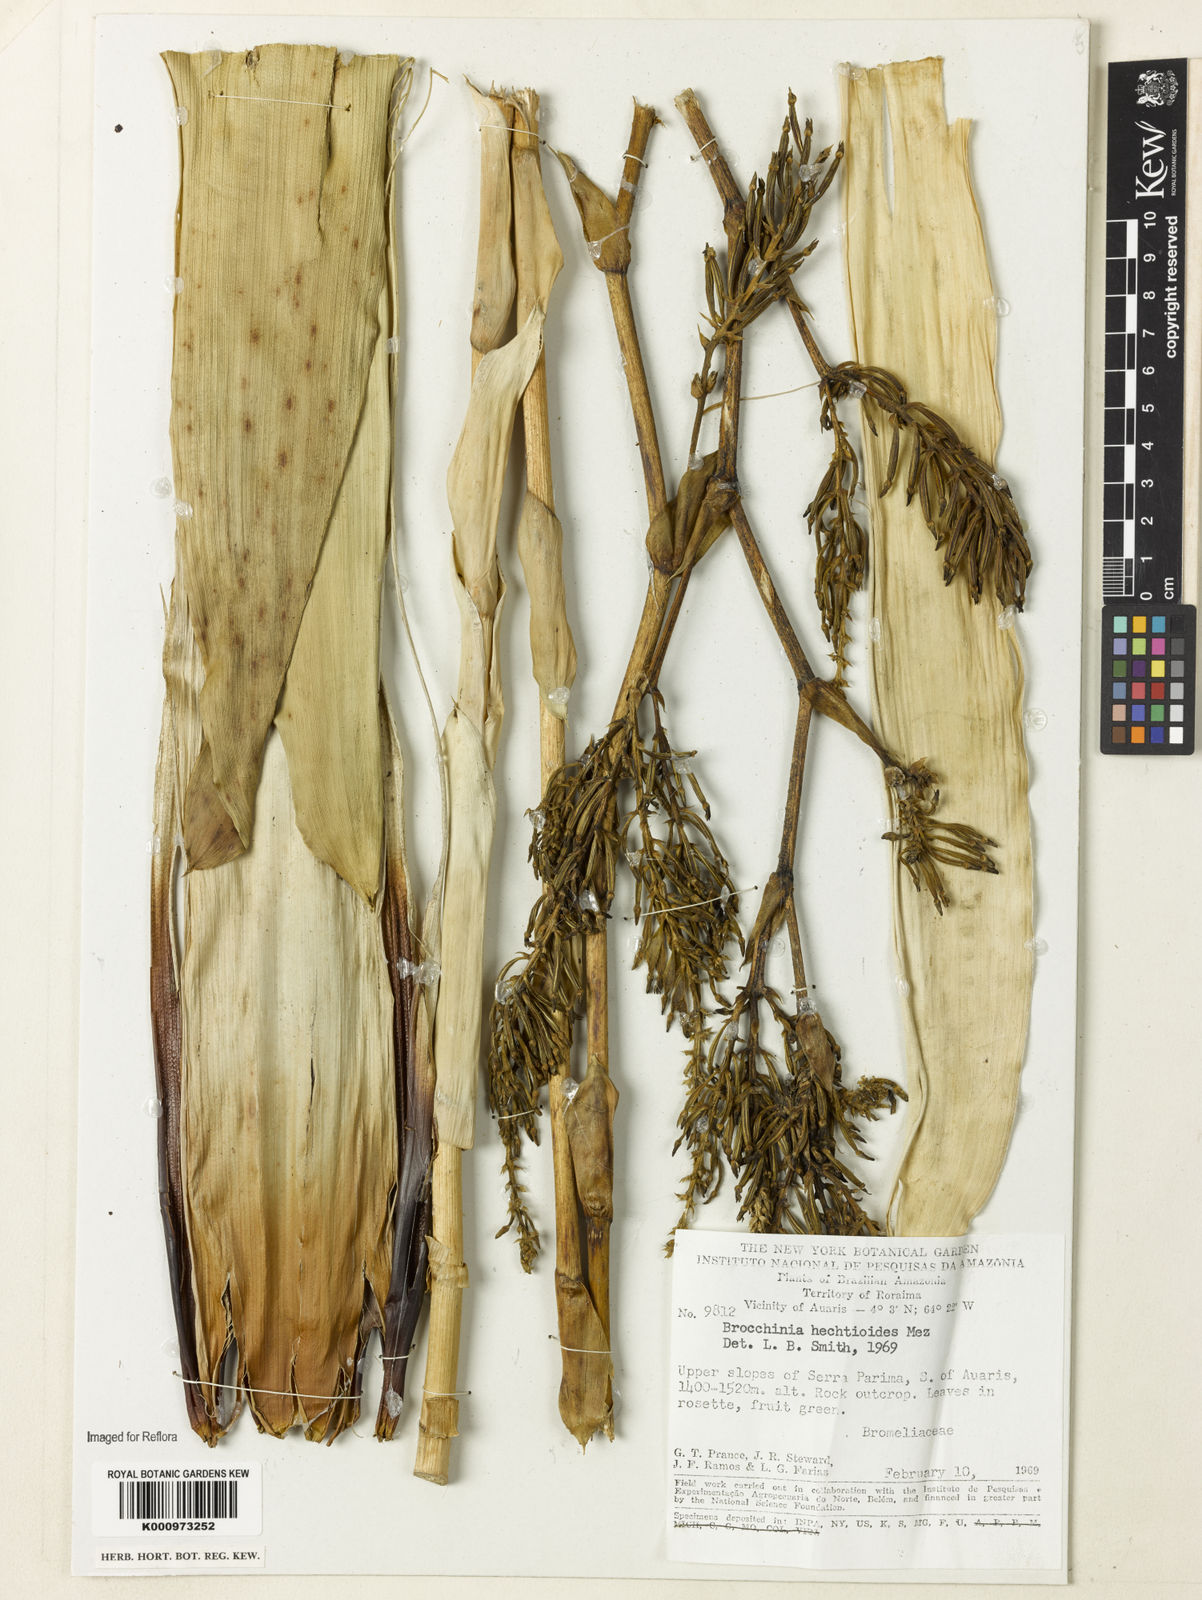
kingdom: Plantae
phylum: Tracheophyta
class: Liliopsida
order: Poales
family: Bromeliaceae
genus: Brocchinia
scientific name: Brocchinia hechtioides
